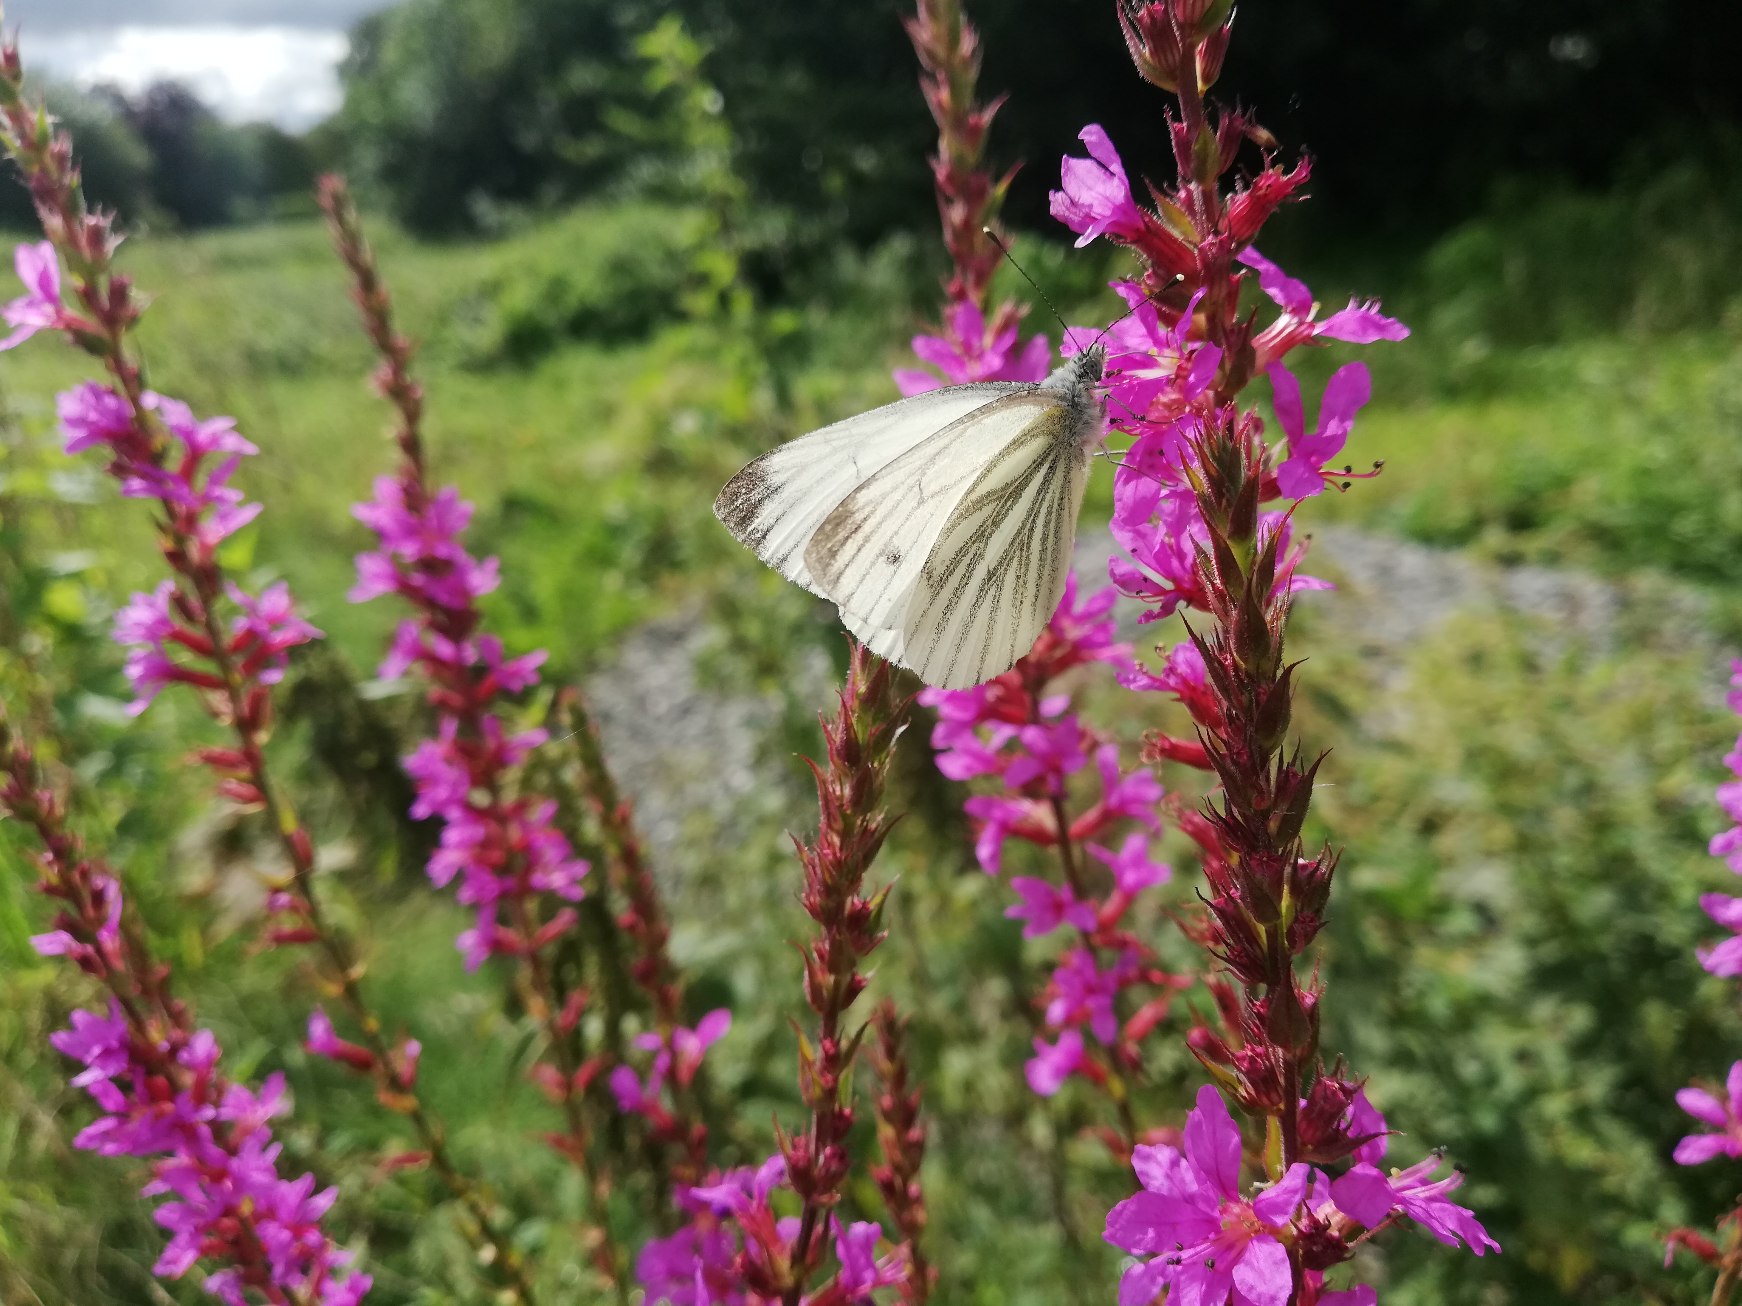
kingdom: Animalia
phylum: Arthropoda
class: Insecta
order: Lepidoptera
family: Pieridae
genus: Pieris
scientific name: Pieris napi
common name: Grønåret kålsommerfugl
